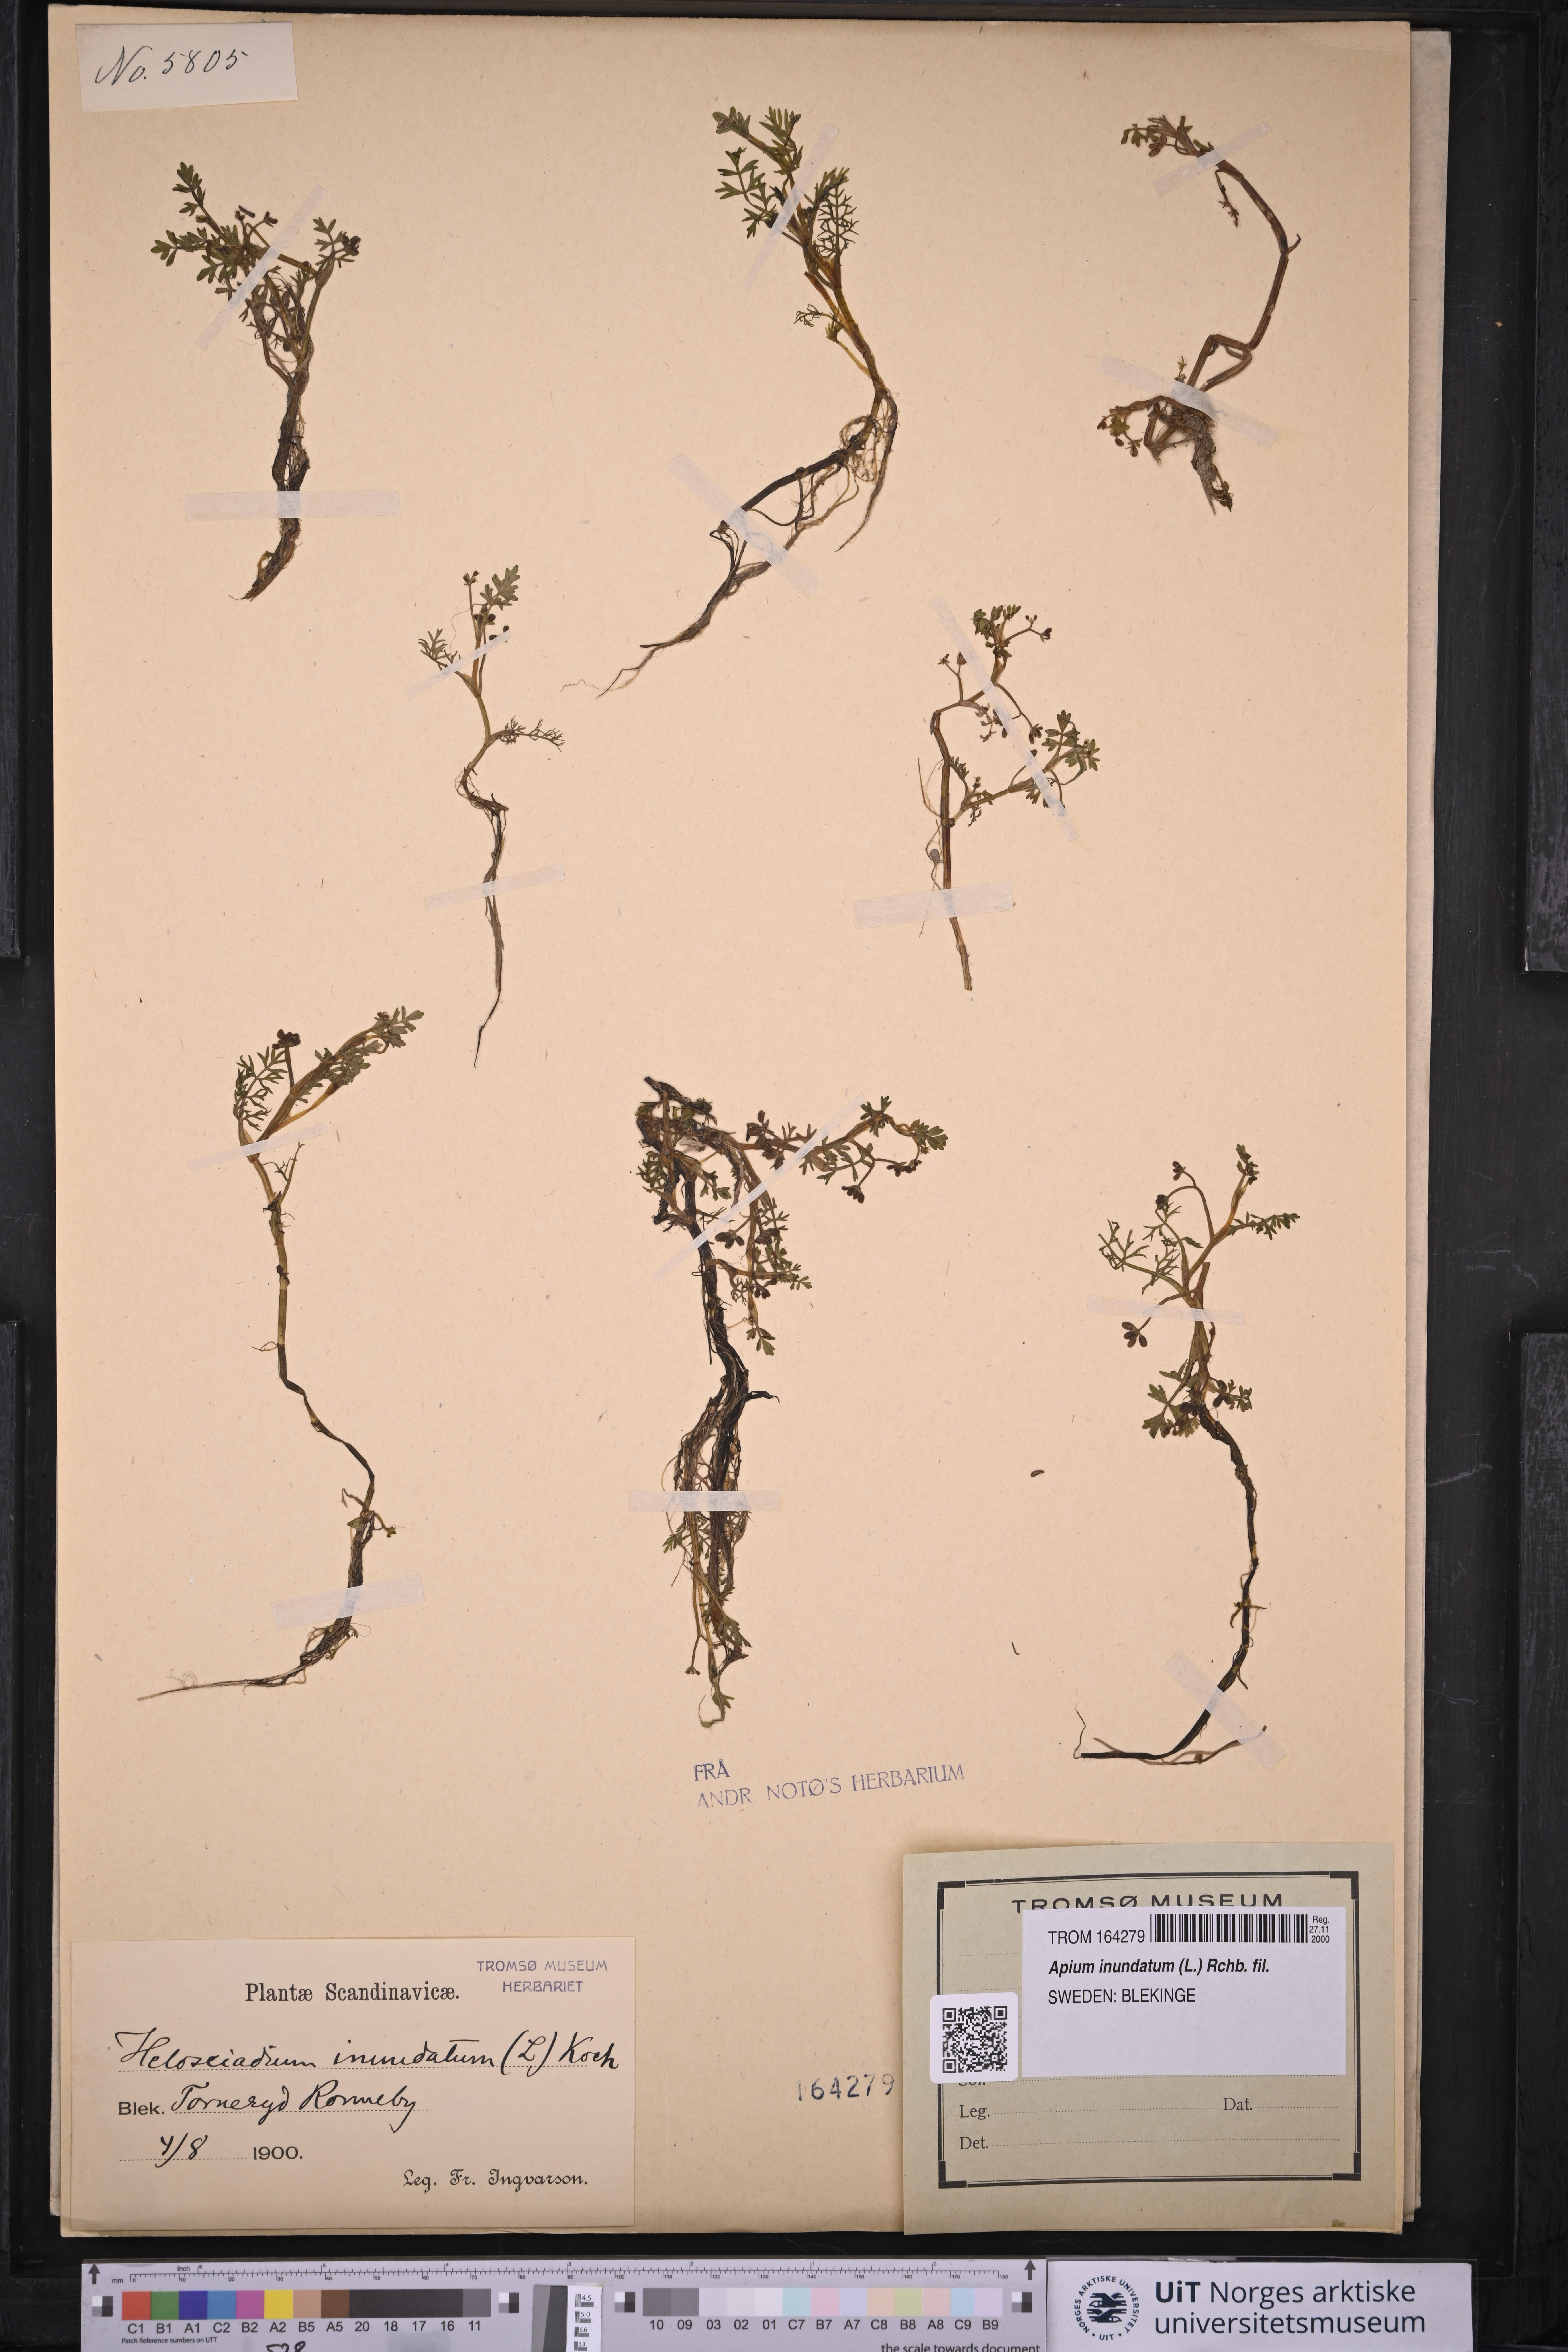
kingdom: Plantae
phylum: Tracheophyta
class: Magnoliopsida
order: Apiales
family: Apiaceae
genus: Helosciadium
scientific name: Helosciadium inundatum
